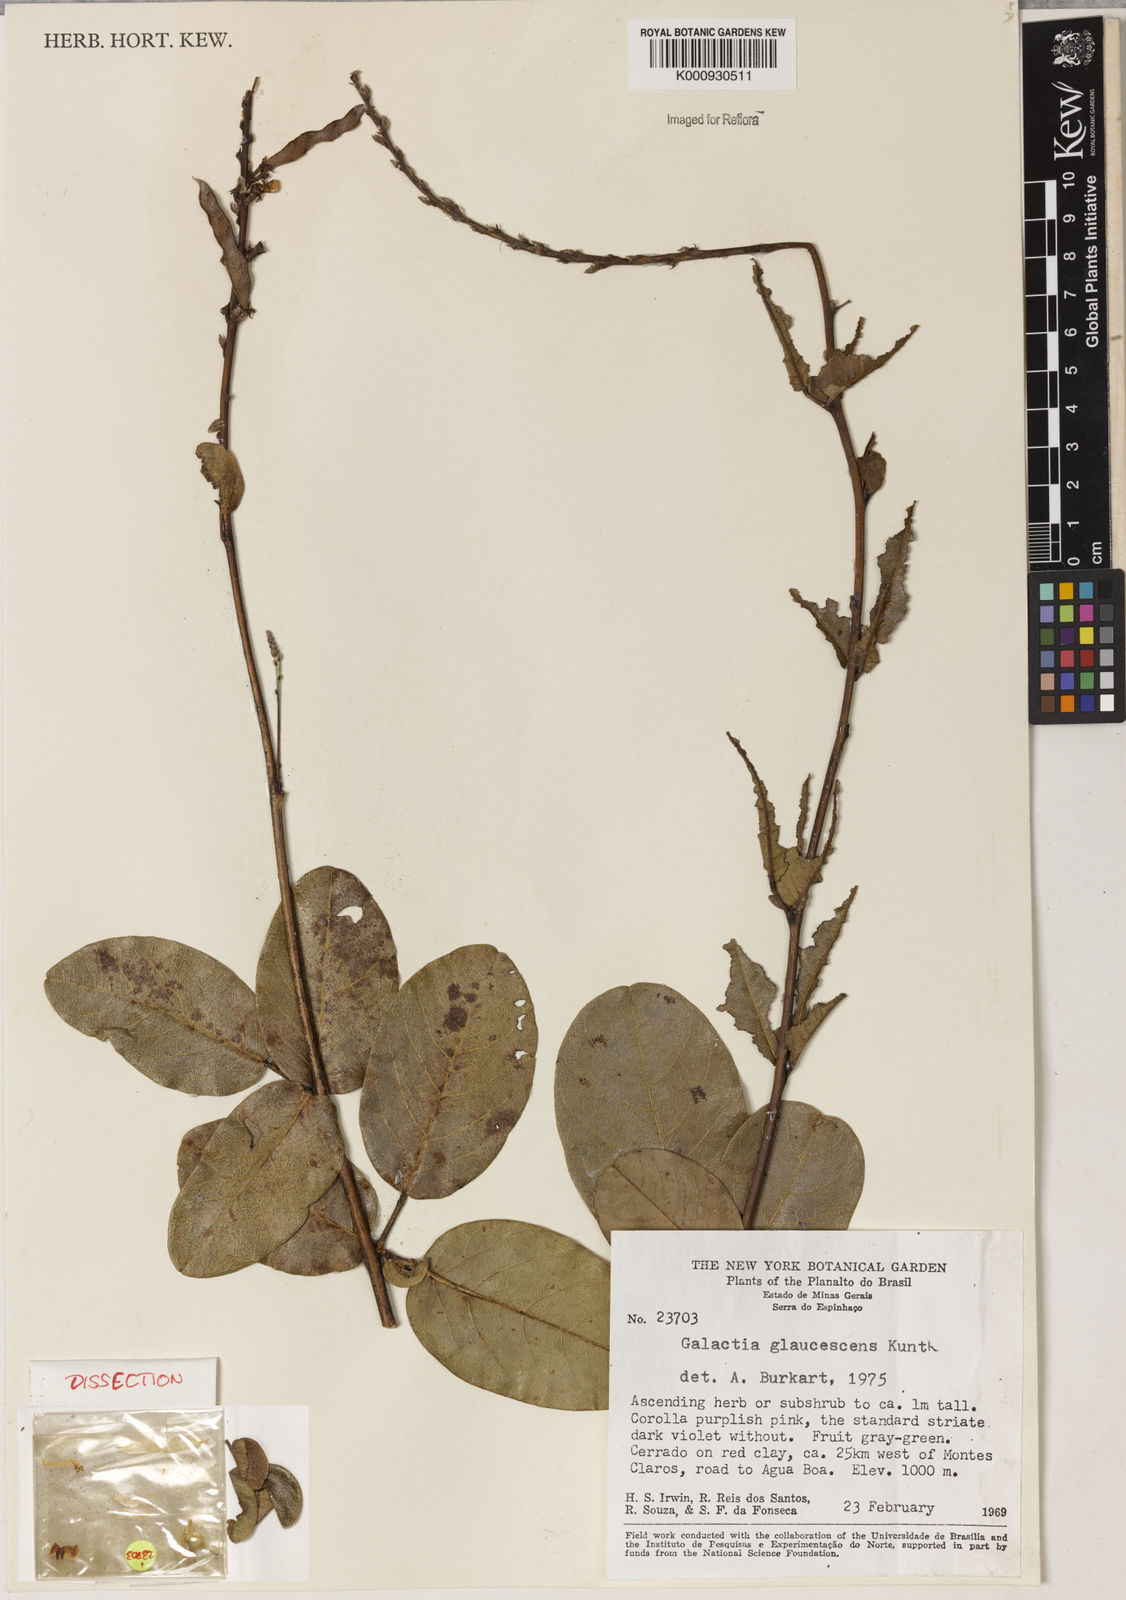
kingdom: Plantae
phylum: Tracheophyta
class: Magnoliopsida
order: Fabales
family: Fabaceae
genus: Galactia
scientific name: Galactia glaucescens
